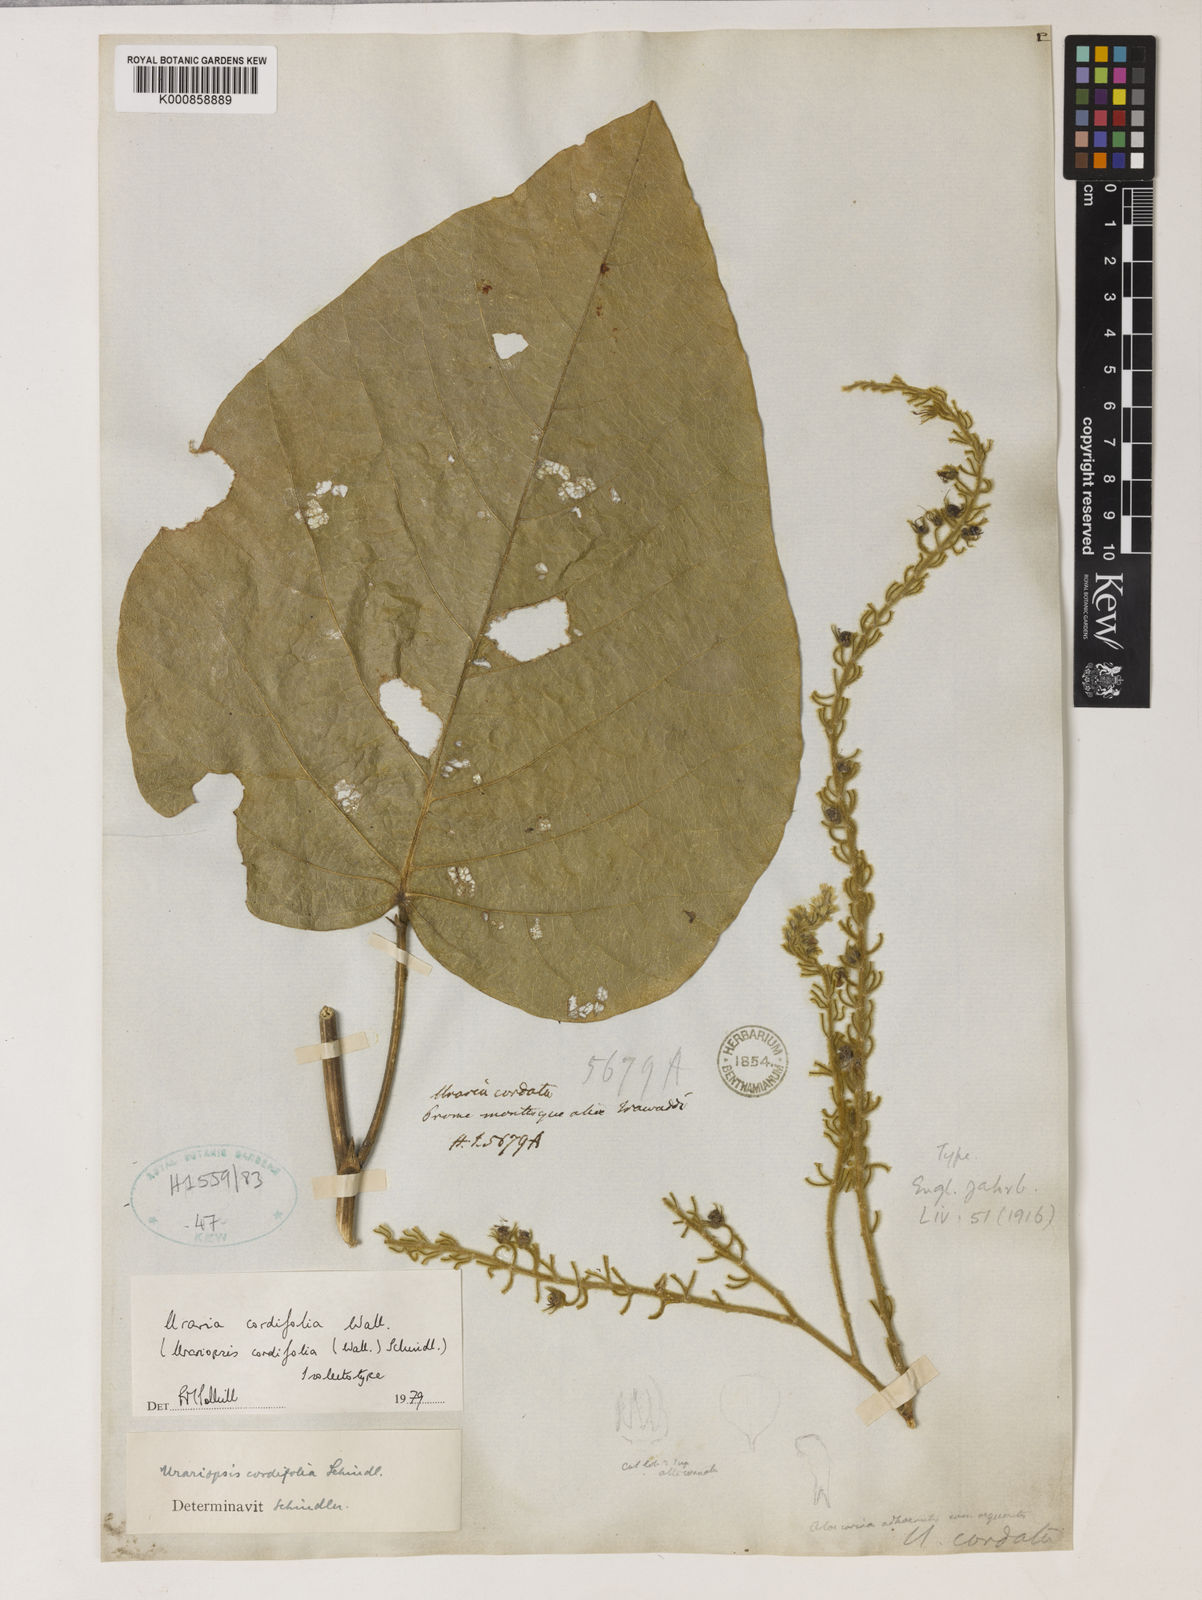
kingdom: Plantae
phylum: Tracheophyta
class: Magnoliopsida
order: Fabales
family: Fabaceae
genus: Uraria
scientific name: Uraria cordifolia
